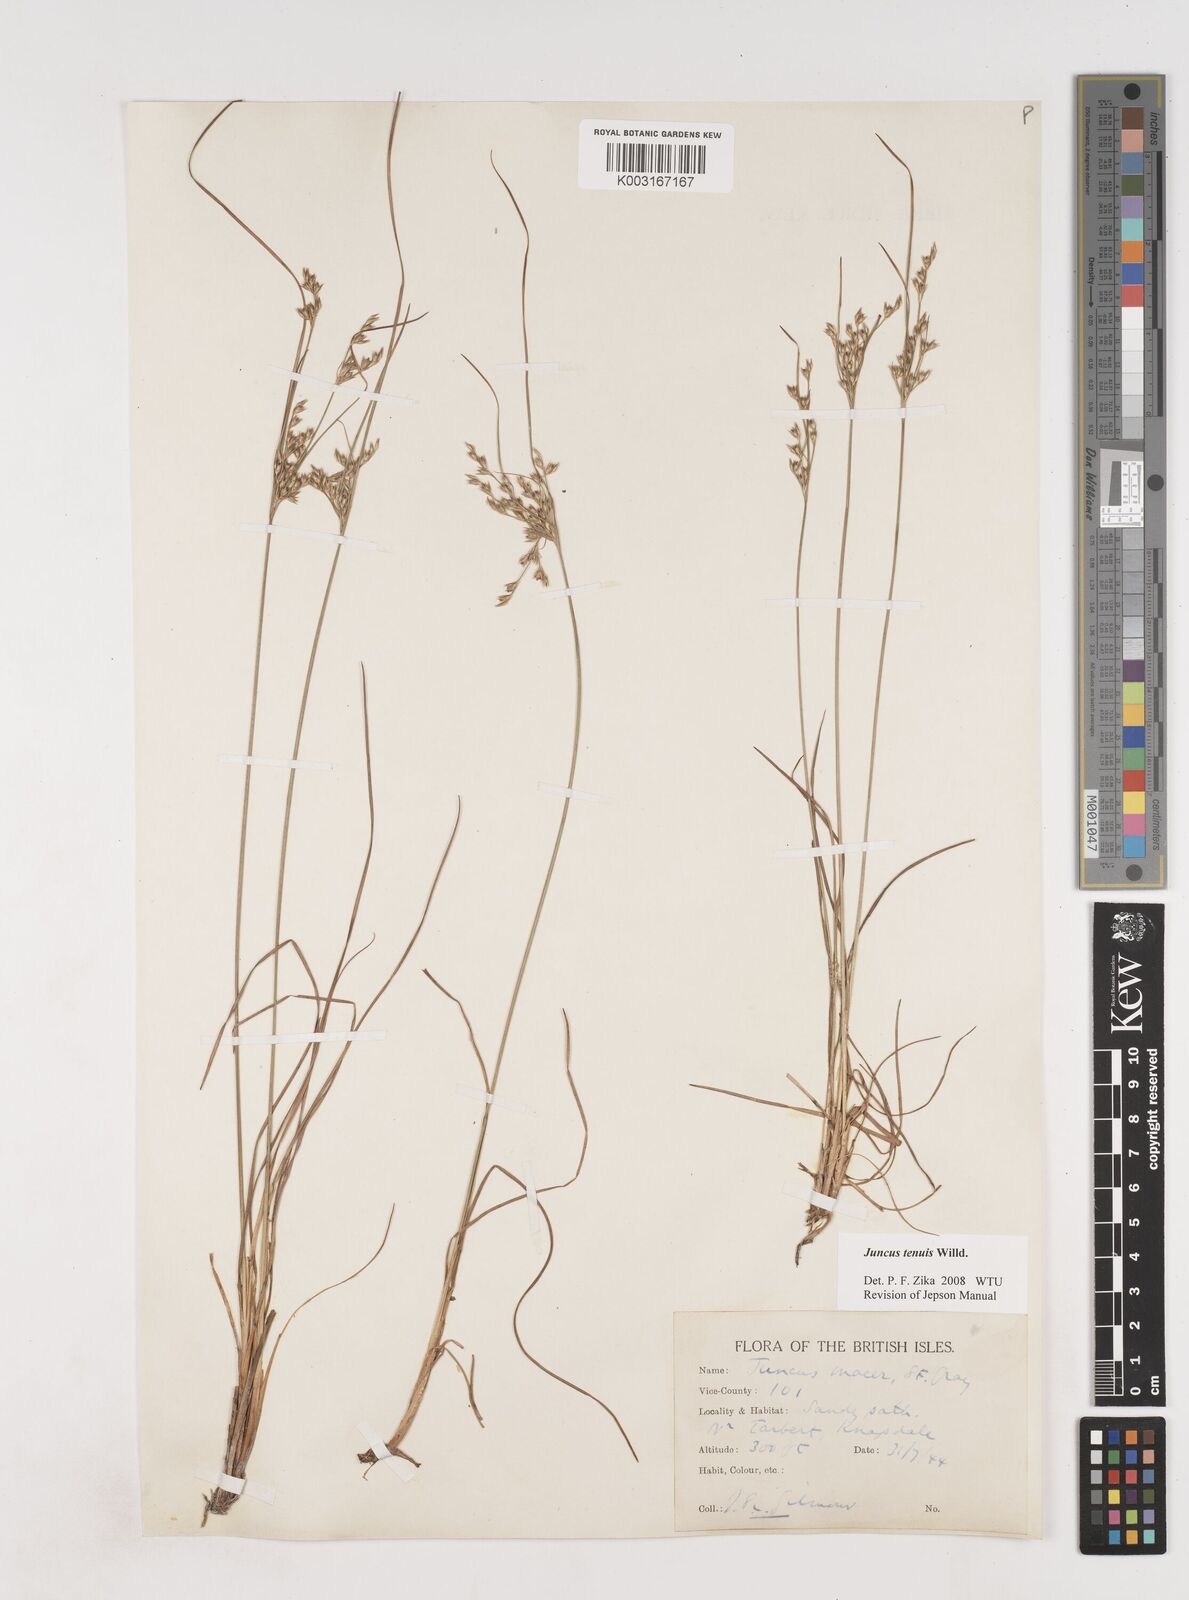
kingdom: Plantae
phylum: Tracheophyta
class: Liliopsida
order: Poales
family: Juncaceae
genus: Juncus
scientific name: Juncus tenuis
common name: Slender rush
